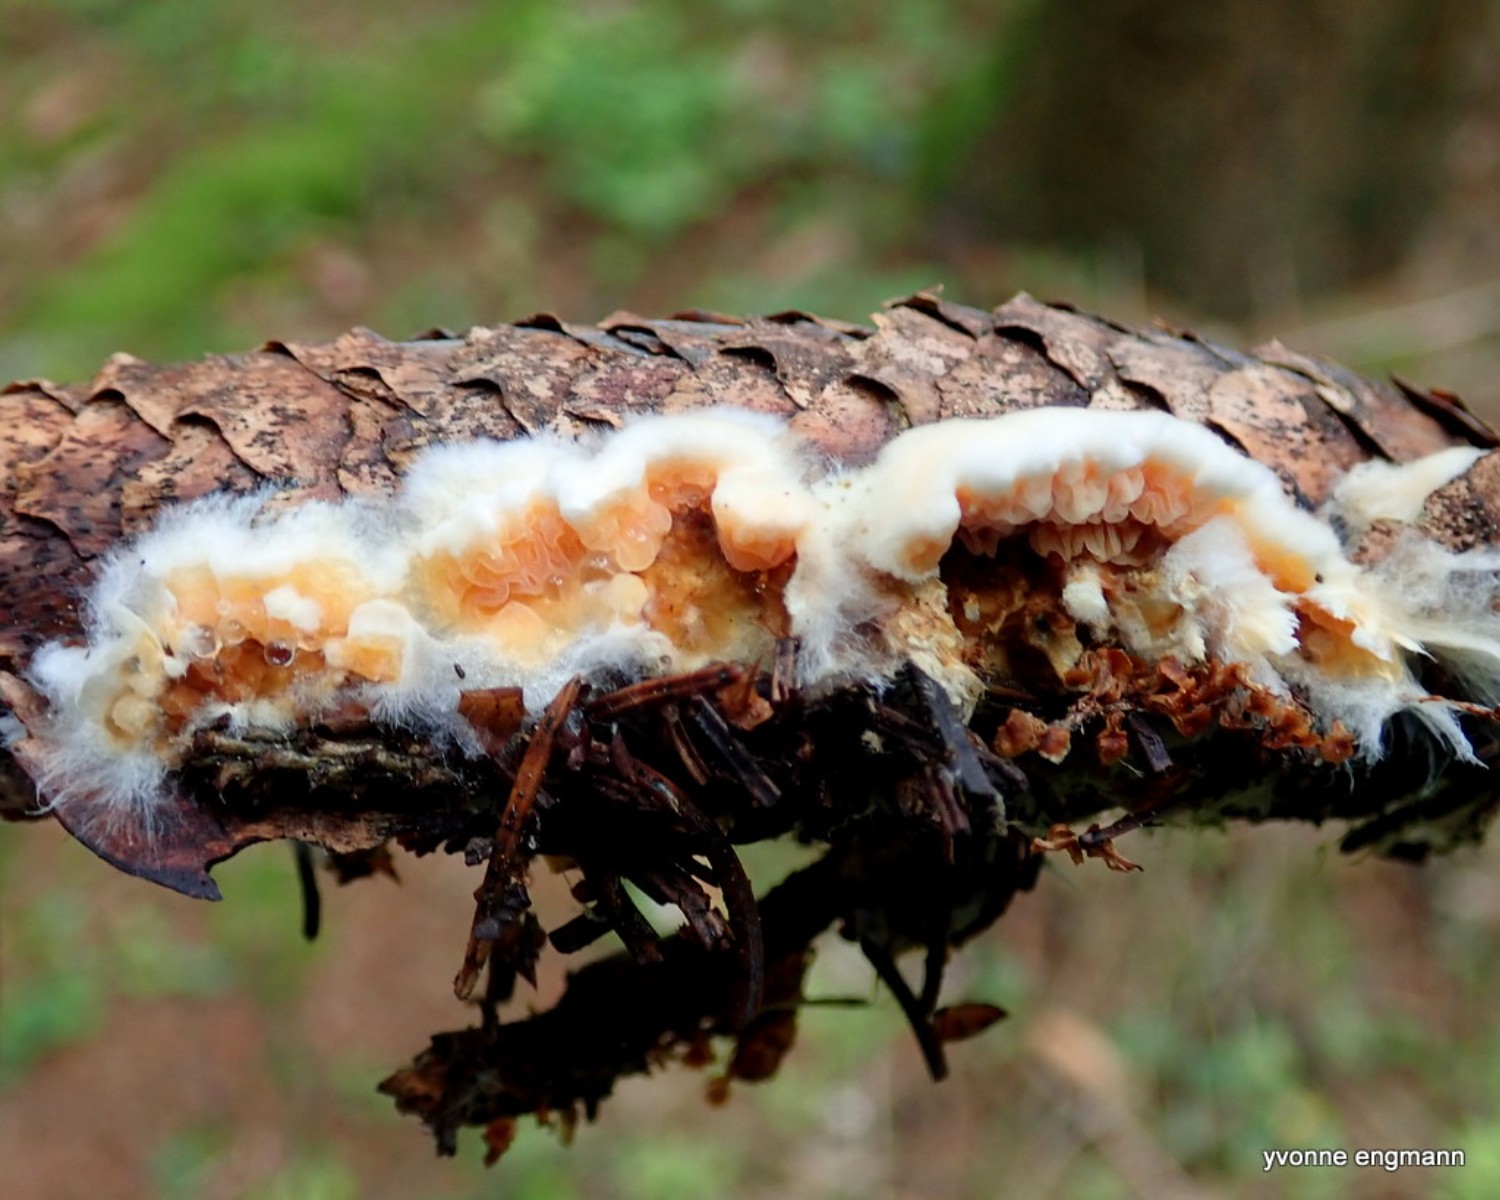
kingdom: Fungi
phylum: Basidiomycota
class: Agaricomycetes
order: Boletales
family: Hygrophoropsidaceae
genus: Leucogyrophana
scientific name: Leucogyrophana
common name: hussvamp
